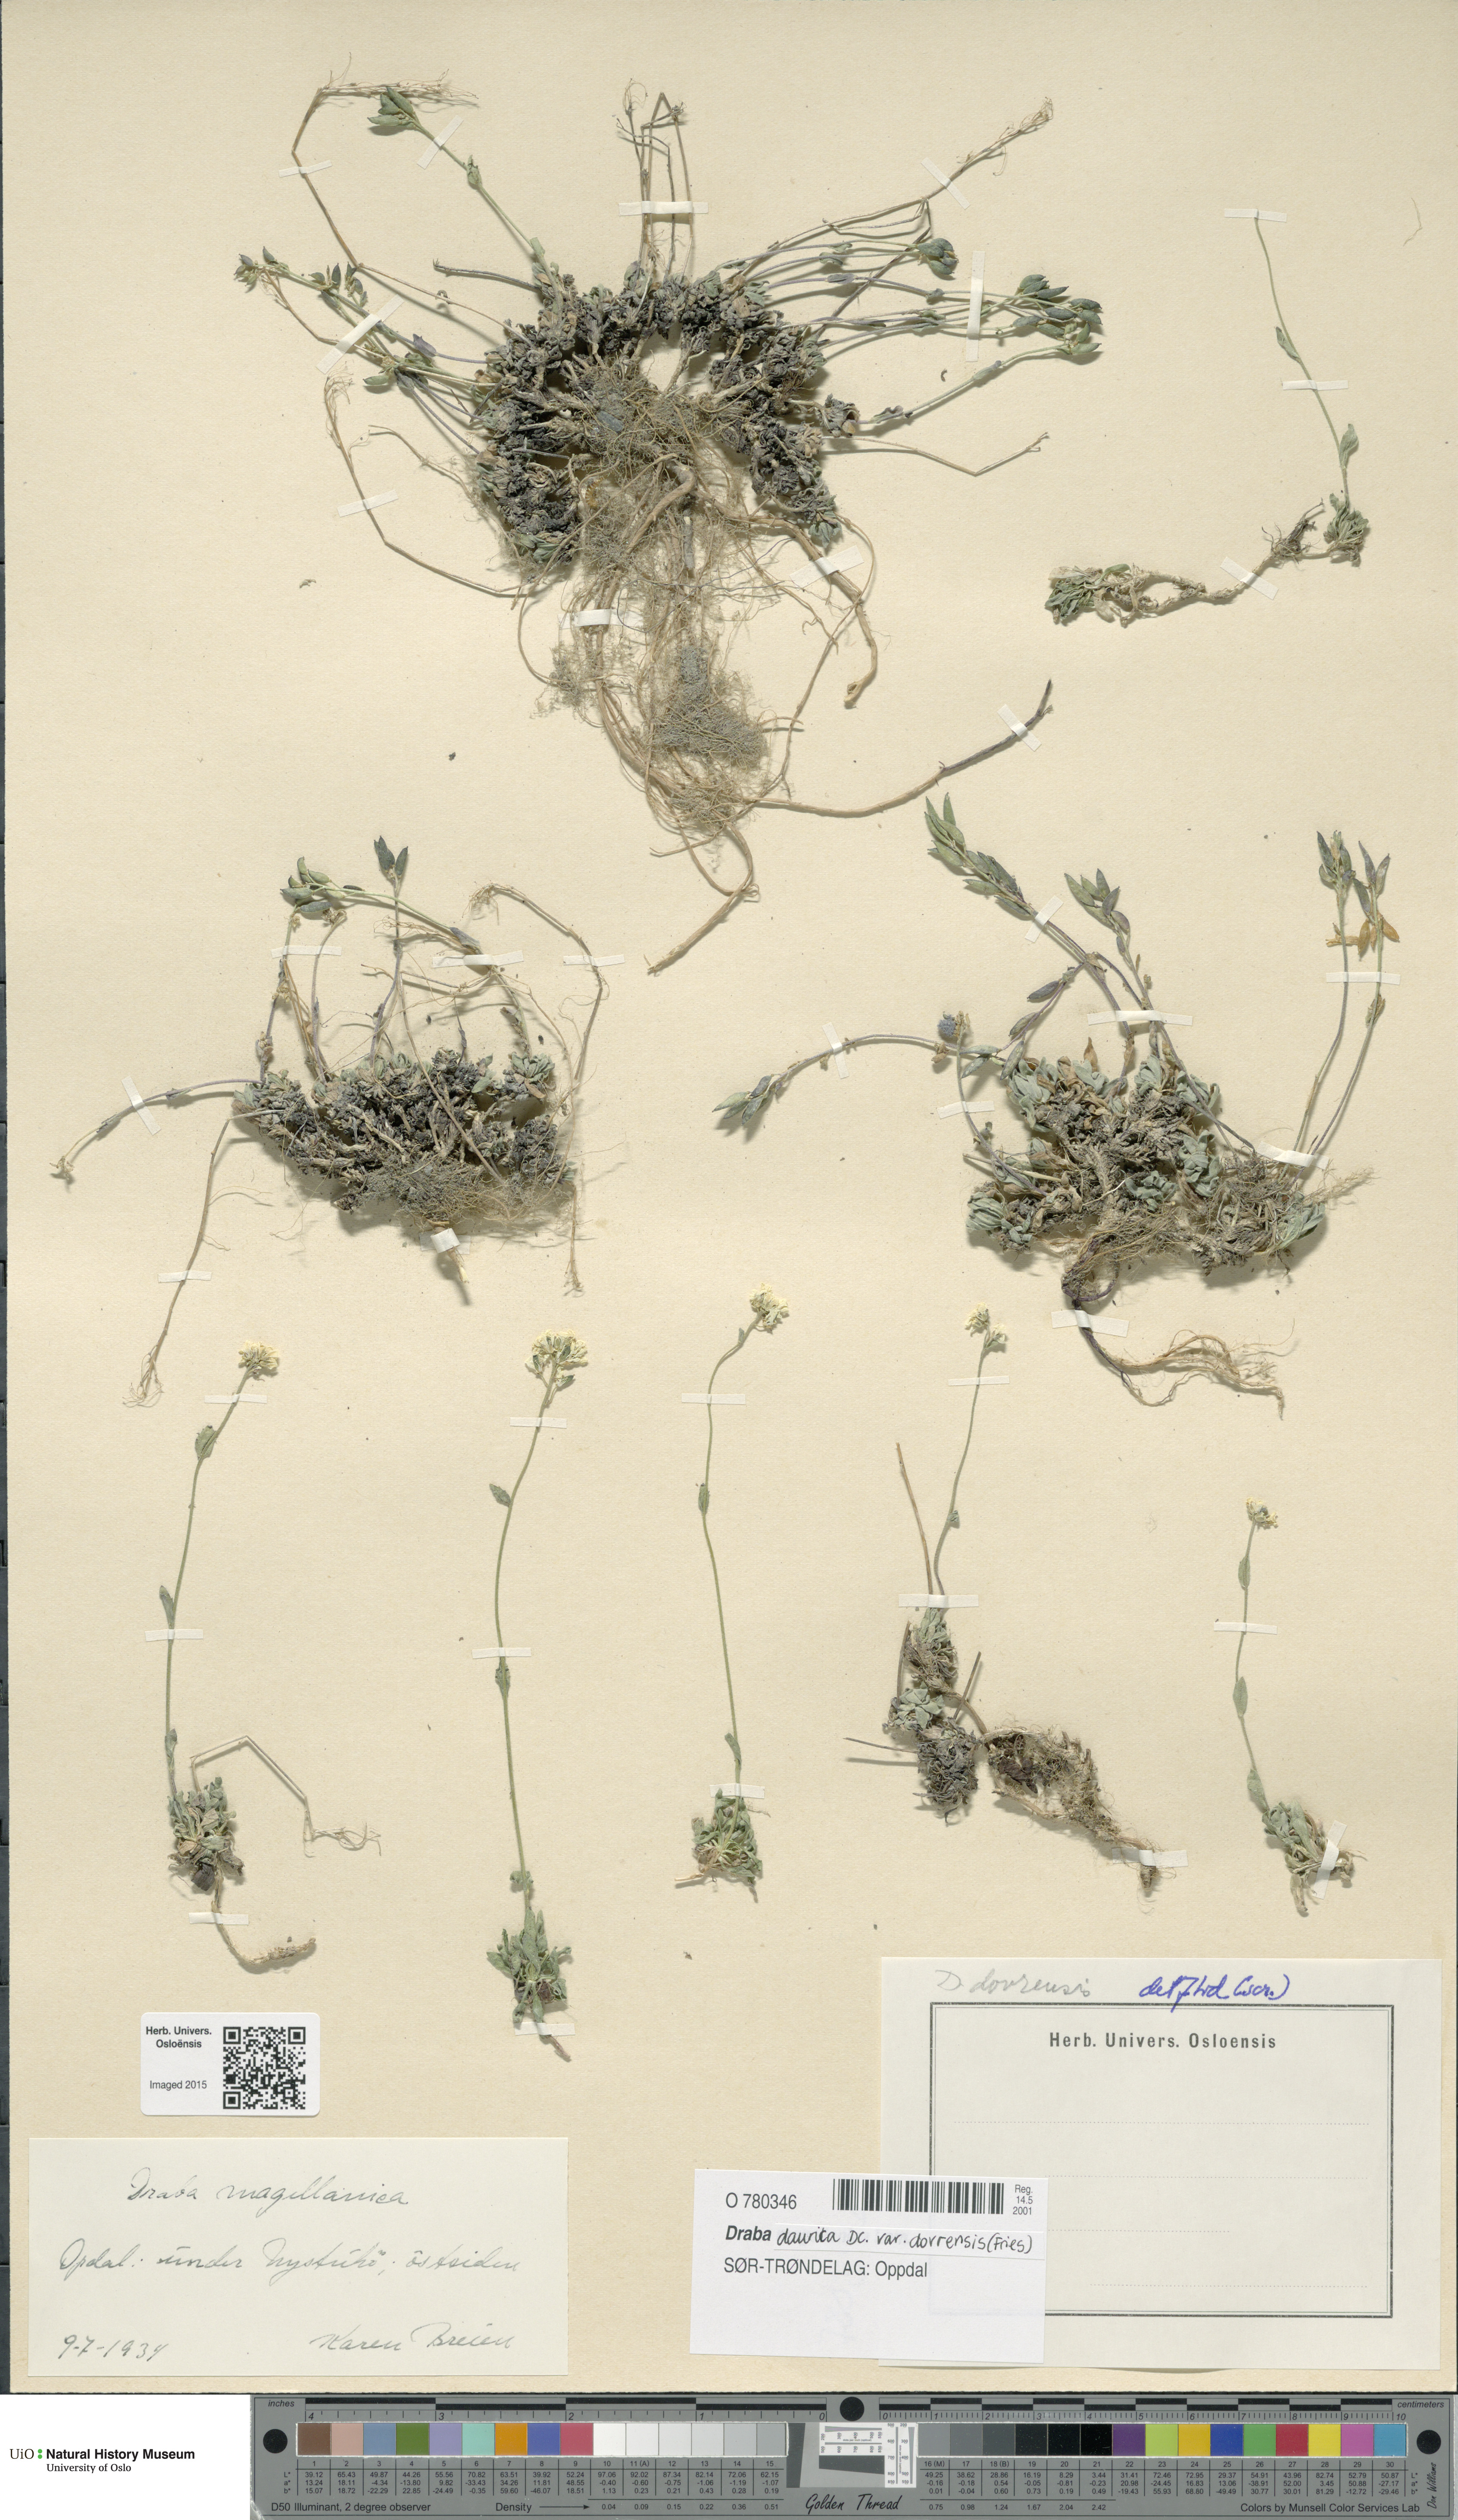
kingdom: Plantae
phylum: Tracheophyta
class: Magnoliopsida
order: Brassicales
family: Brassicaceae
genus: Draba
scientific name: Draba glabella
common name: Glaucous draba
